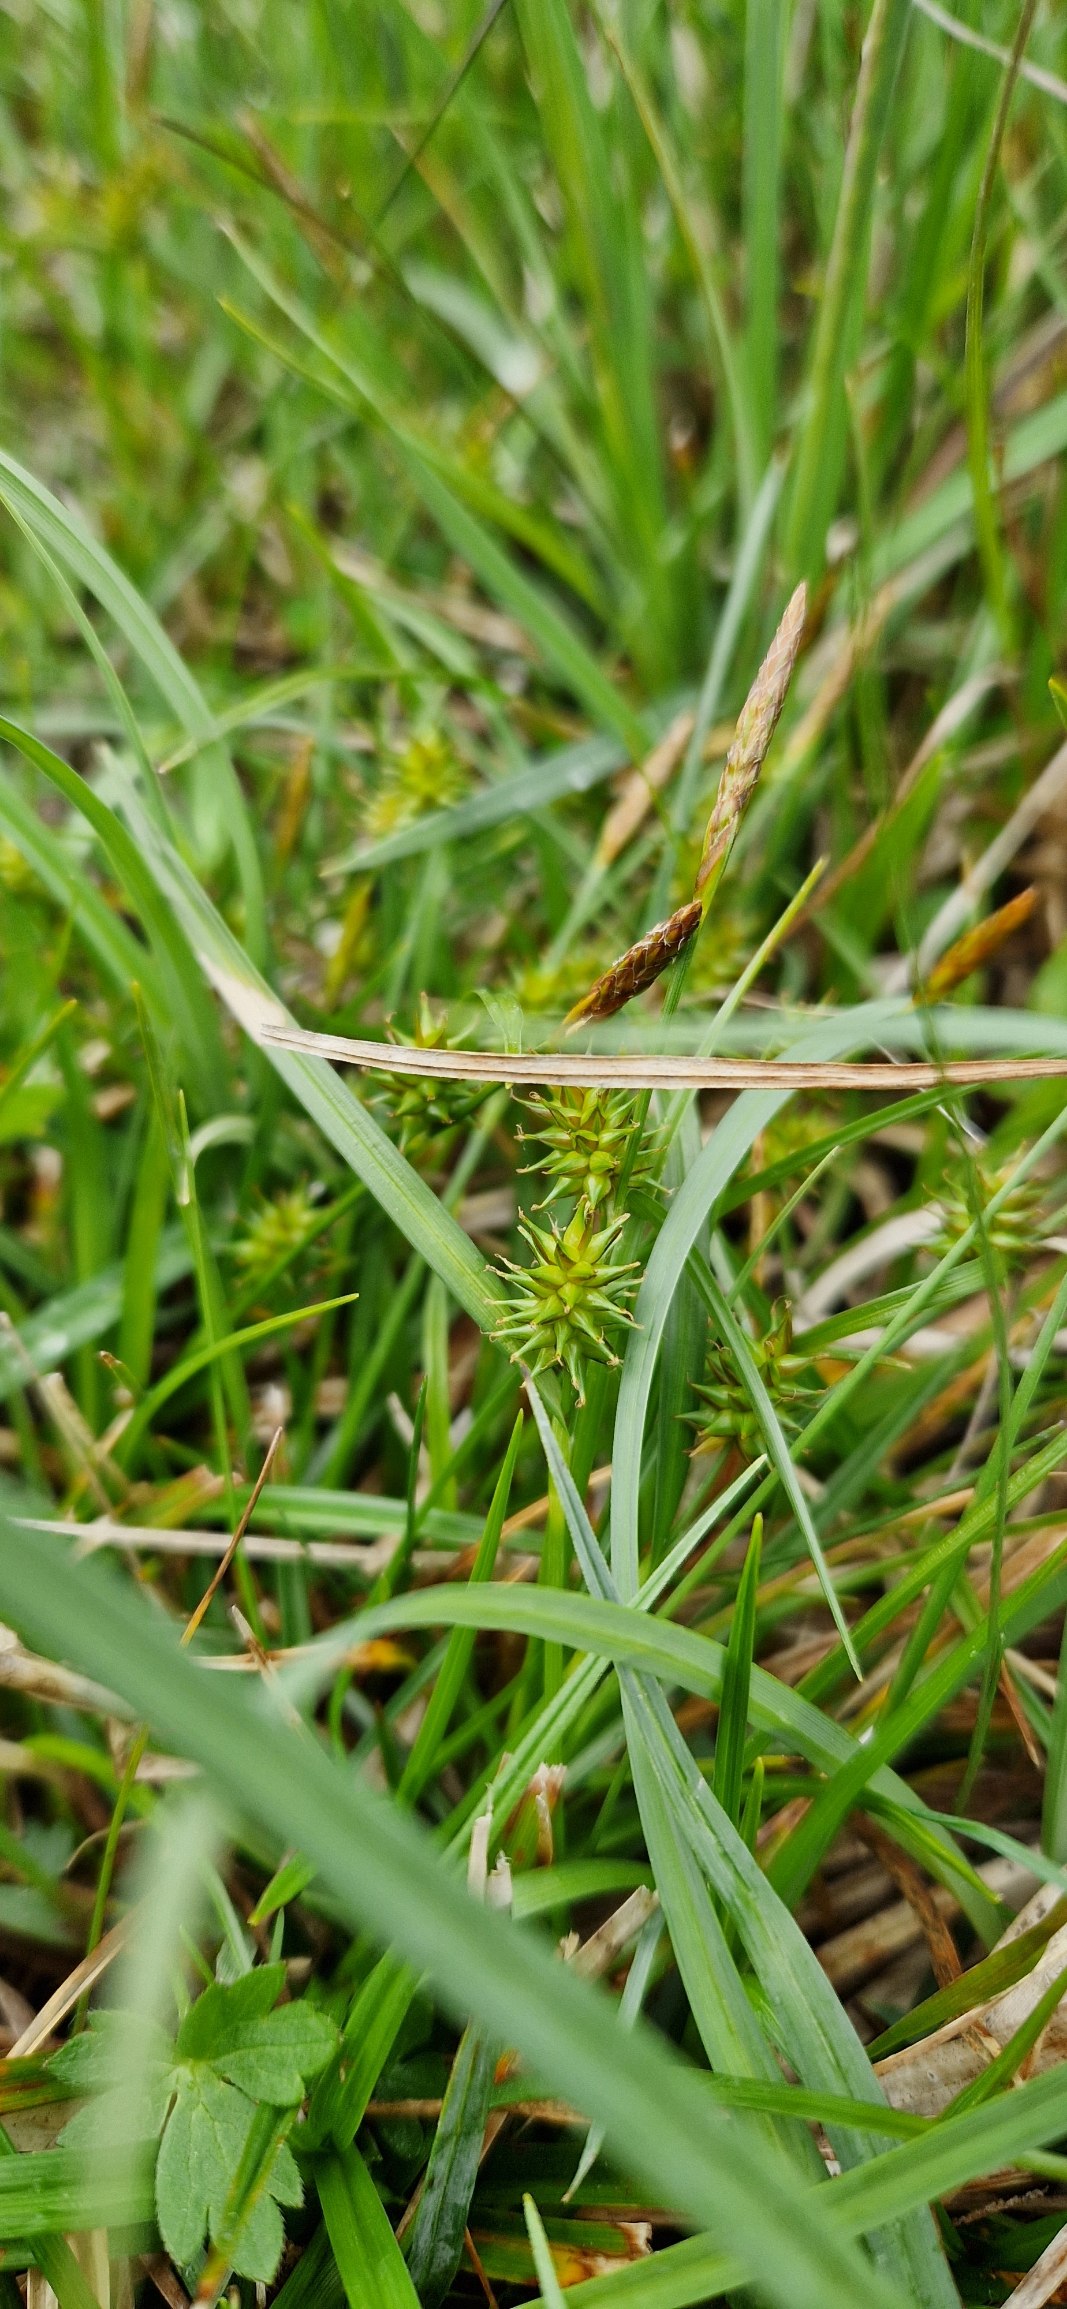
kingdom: Plantae
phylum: Tracheophyta
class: Liliopsida
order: Poales
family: Cyperaceae
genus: Carex
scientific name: Carex demissa
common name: Grøn star
